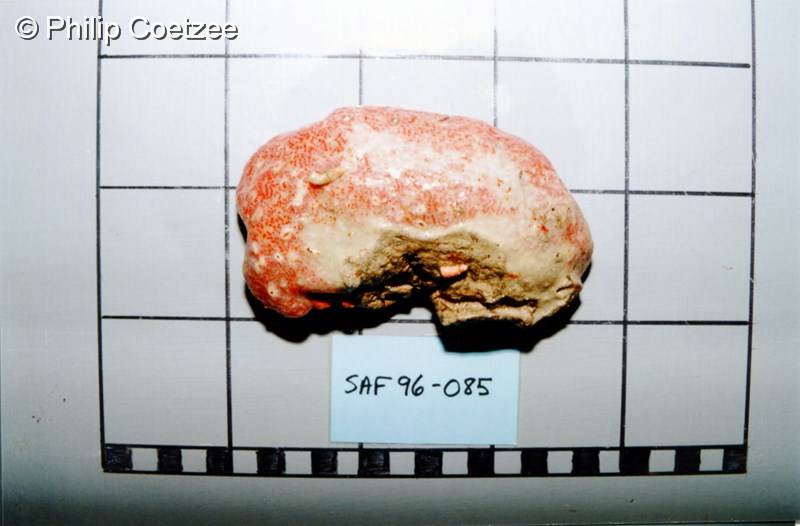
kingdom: Animalia
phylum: Chordata
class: Ascidiacea
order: Aplousobranchia
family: Pseudodistomidae
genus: Anadistoma
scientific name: Anadistoma
